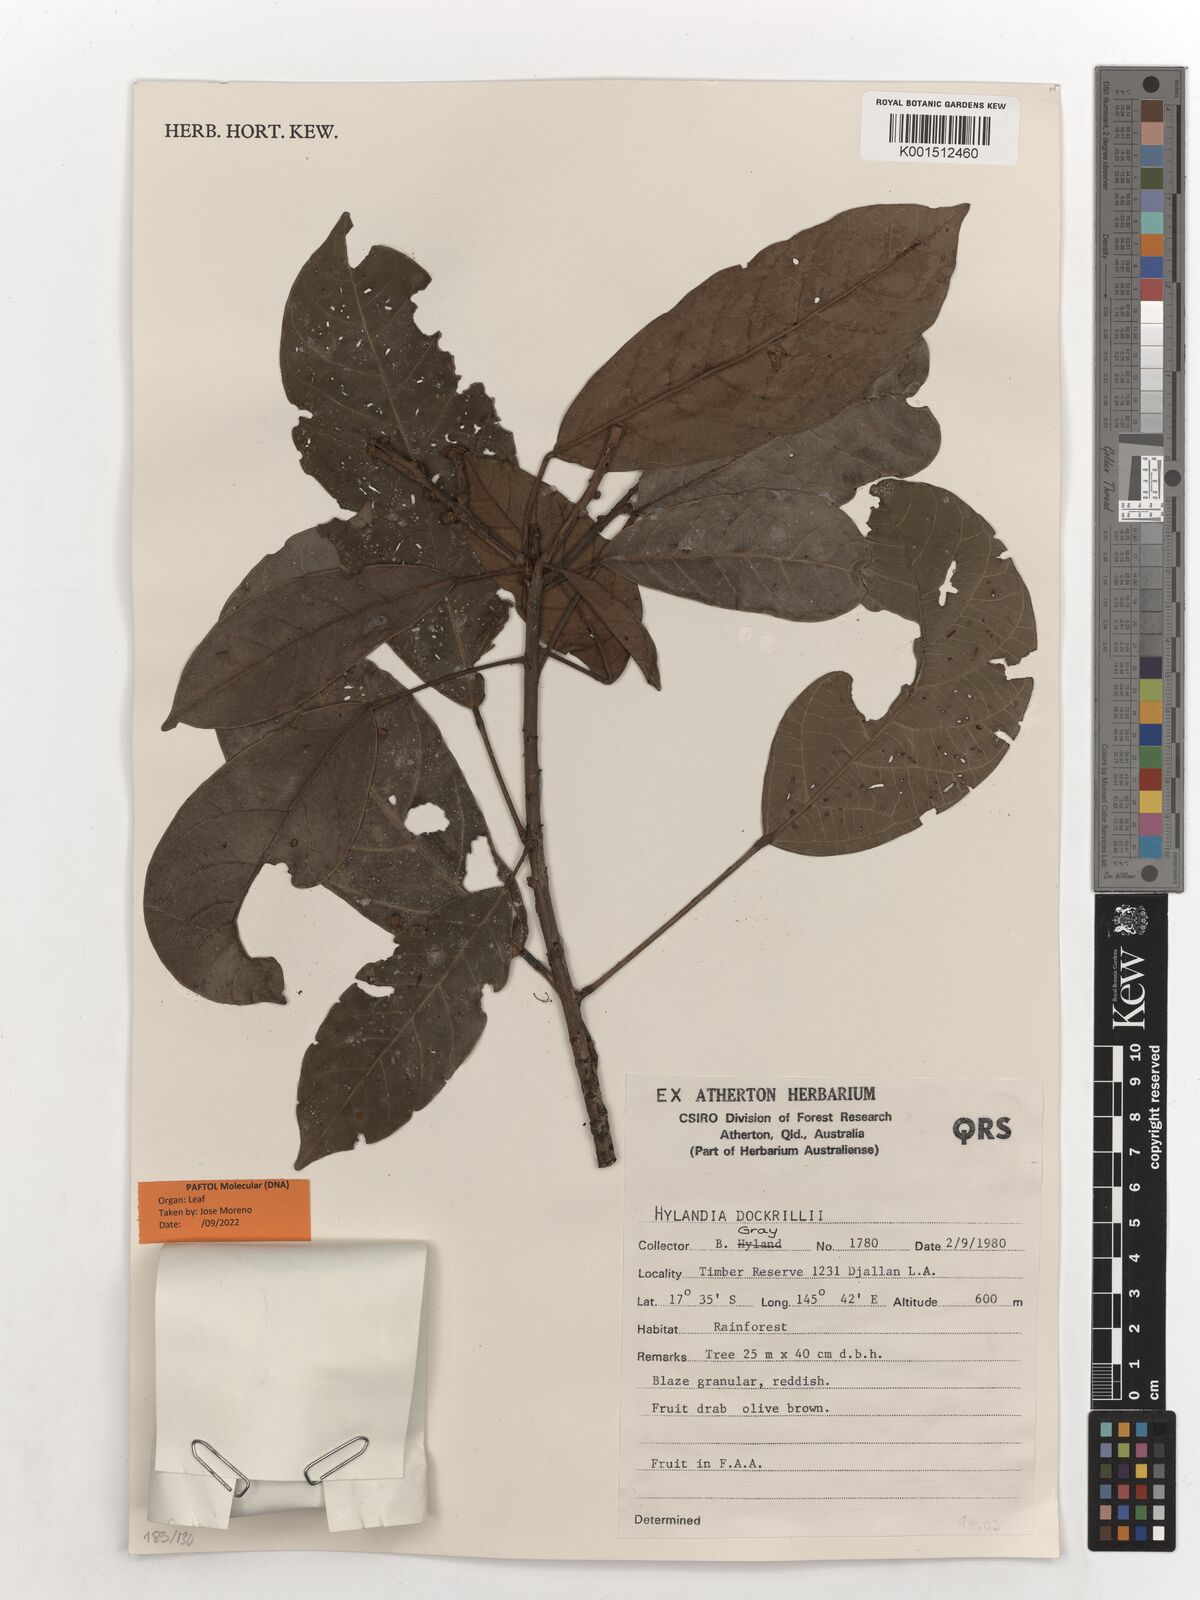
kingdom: Plantae
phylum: Tracheophyta
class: Magnoliopsida
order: Malpighiales
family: Euphorbiaceae
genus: Hylandia
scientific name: Hylandia dockrillii
